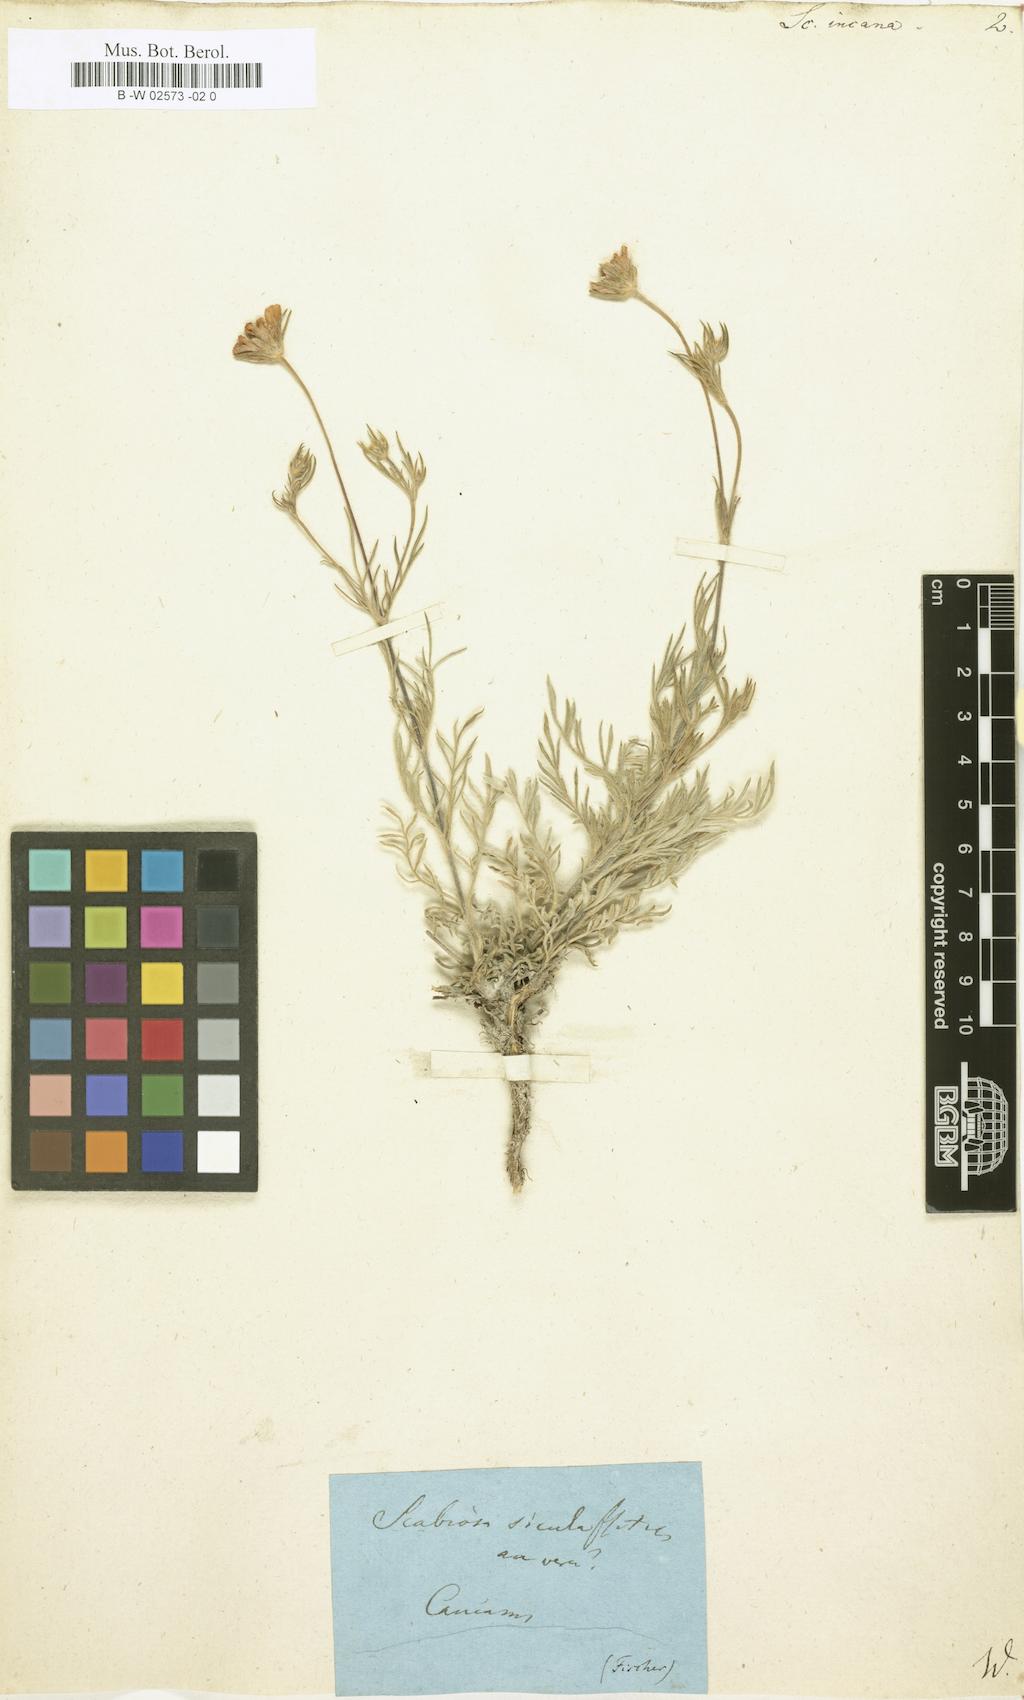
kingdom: Plantae
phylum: Tracheophyta
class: Magnoliopsida
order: Dipsacales
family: Caprifoliaceae
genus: Scabiosa
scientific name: Scabiosa
